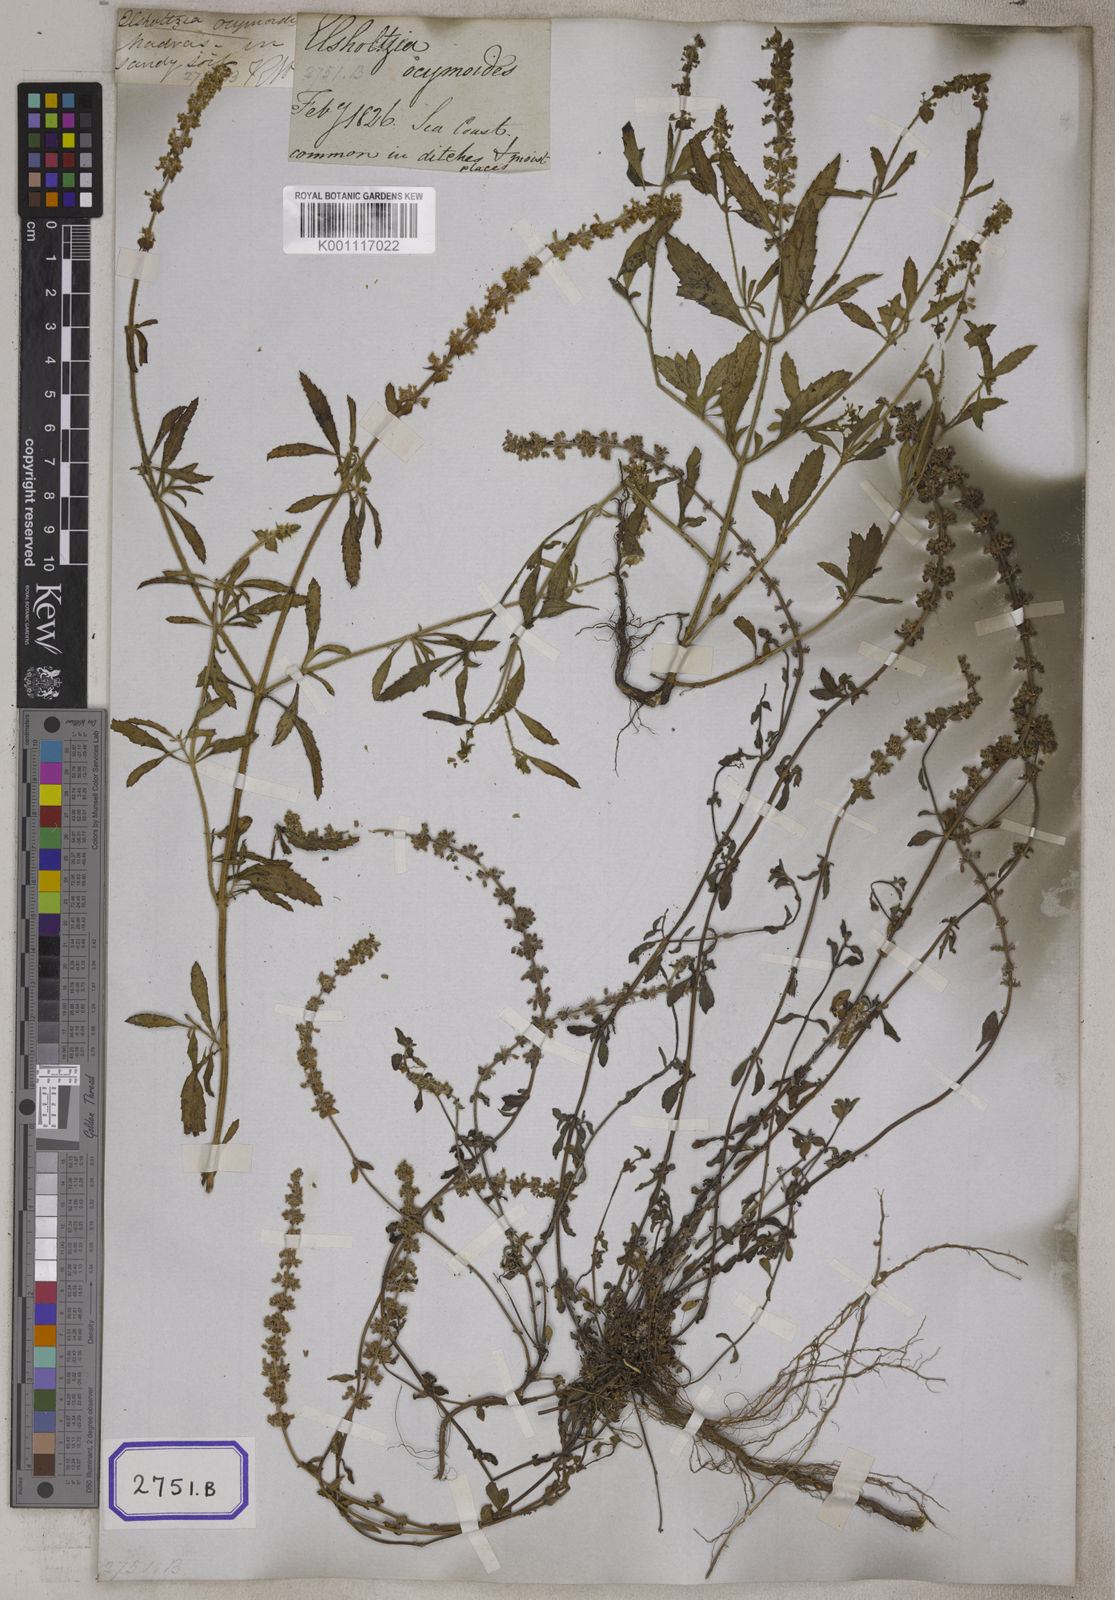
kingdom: Plantae
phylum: Tracheophyta
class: Magnoliopsida
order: Lamiales
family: Lamiaceae
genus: Platostoma
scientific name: Platostoma menthoides
